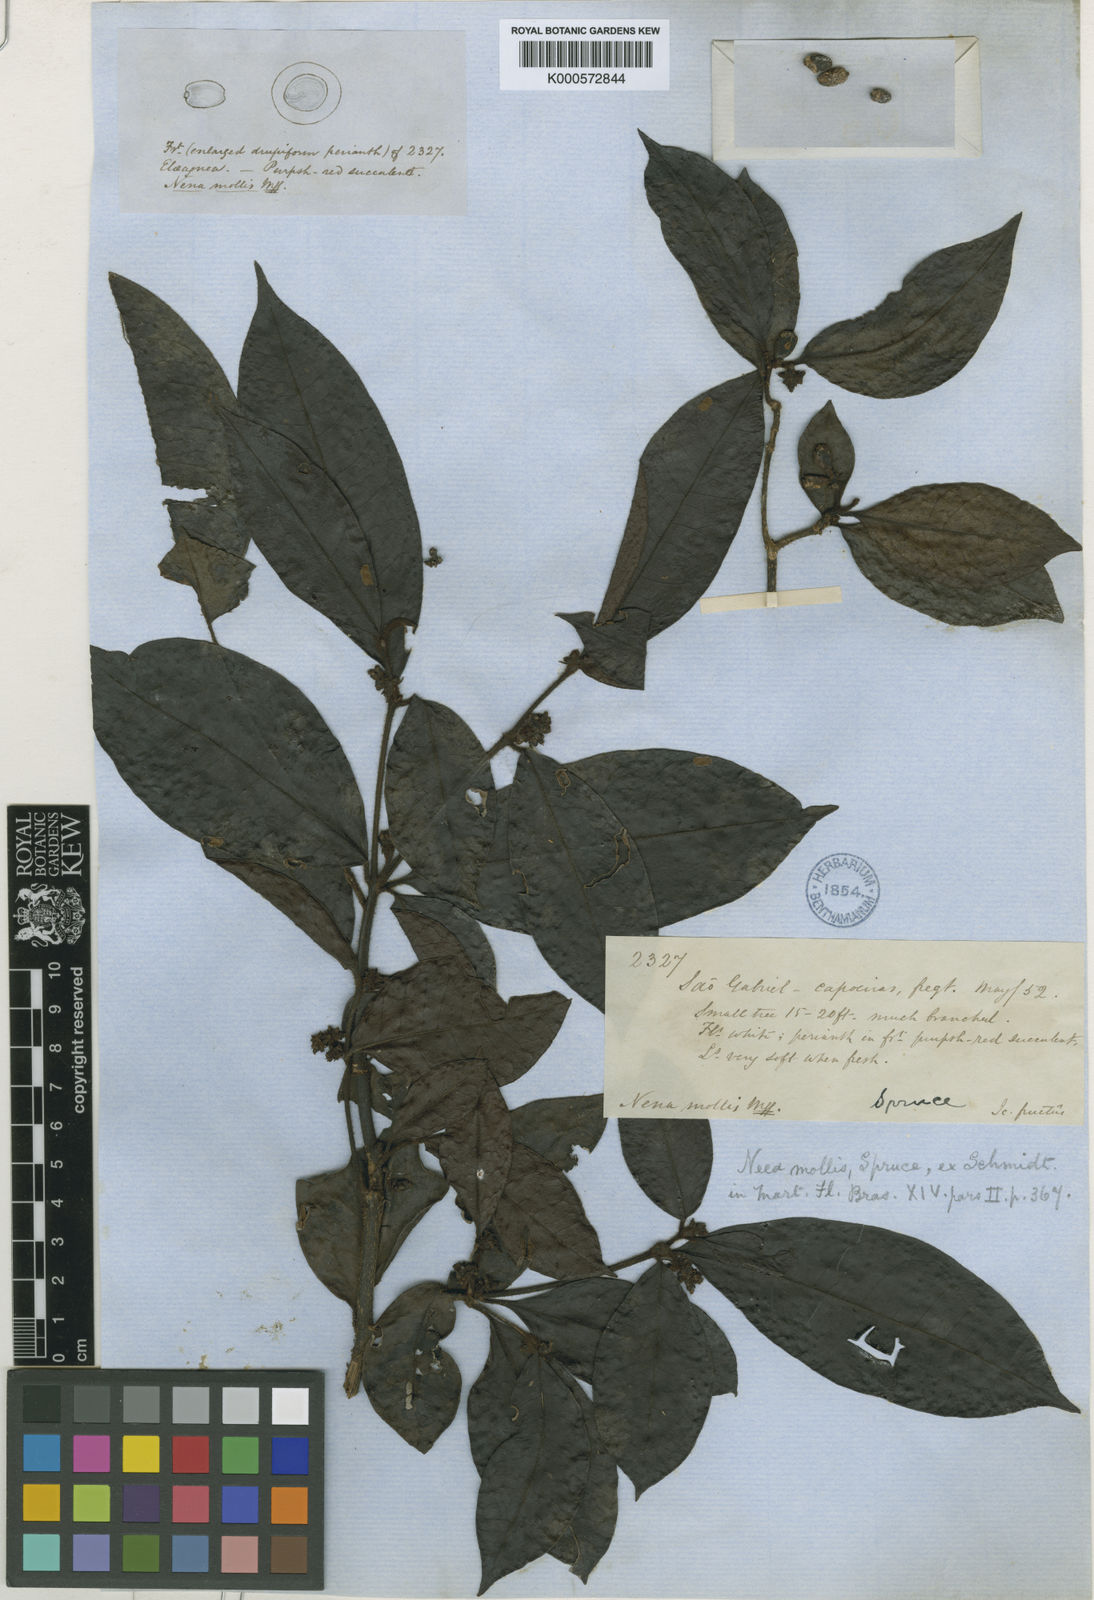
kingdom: Plantae
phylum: Tracheophyta
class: Magnoliopsida
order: Caryophyllales
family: Nyctaginaceae
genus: Neea
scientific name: Neea mollis
